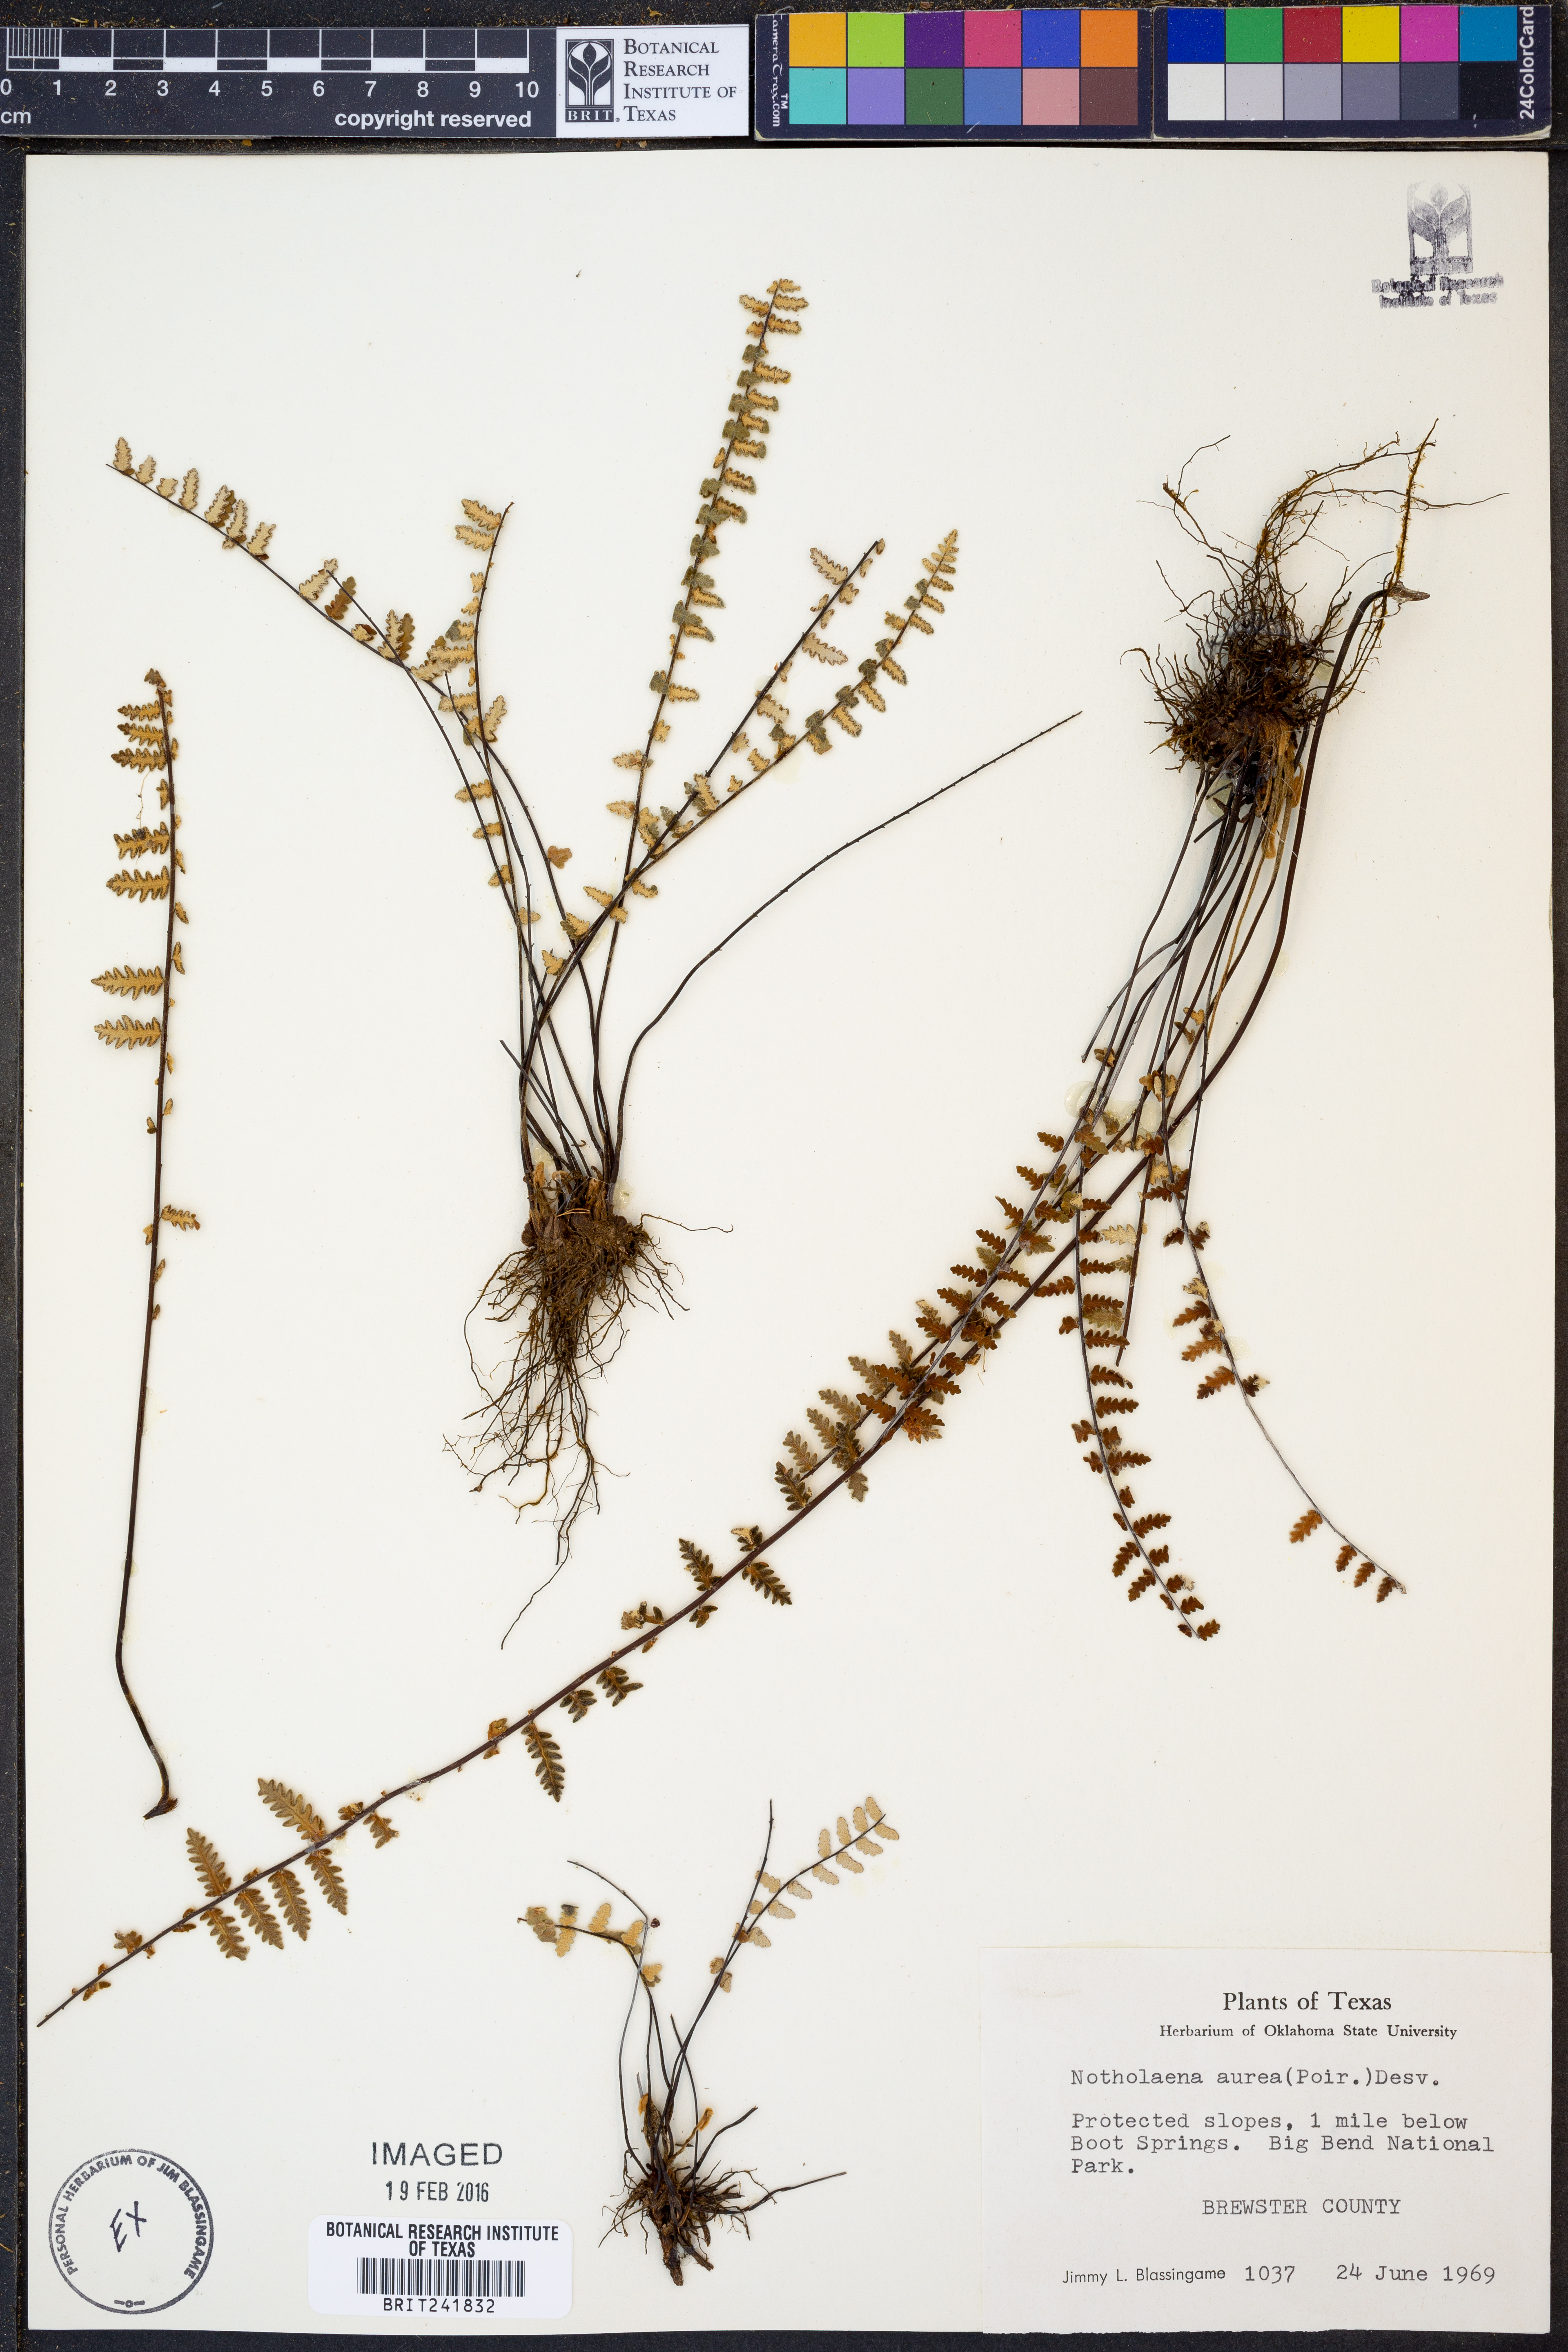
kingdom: Plantae
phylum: Tracheophyta
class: Polypodiopsida
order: Polypodiales
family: Pteridaceae
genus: Myriopteris
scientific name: Myriopteris aurea
